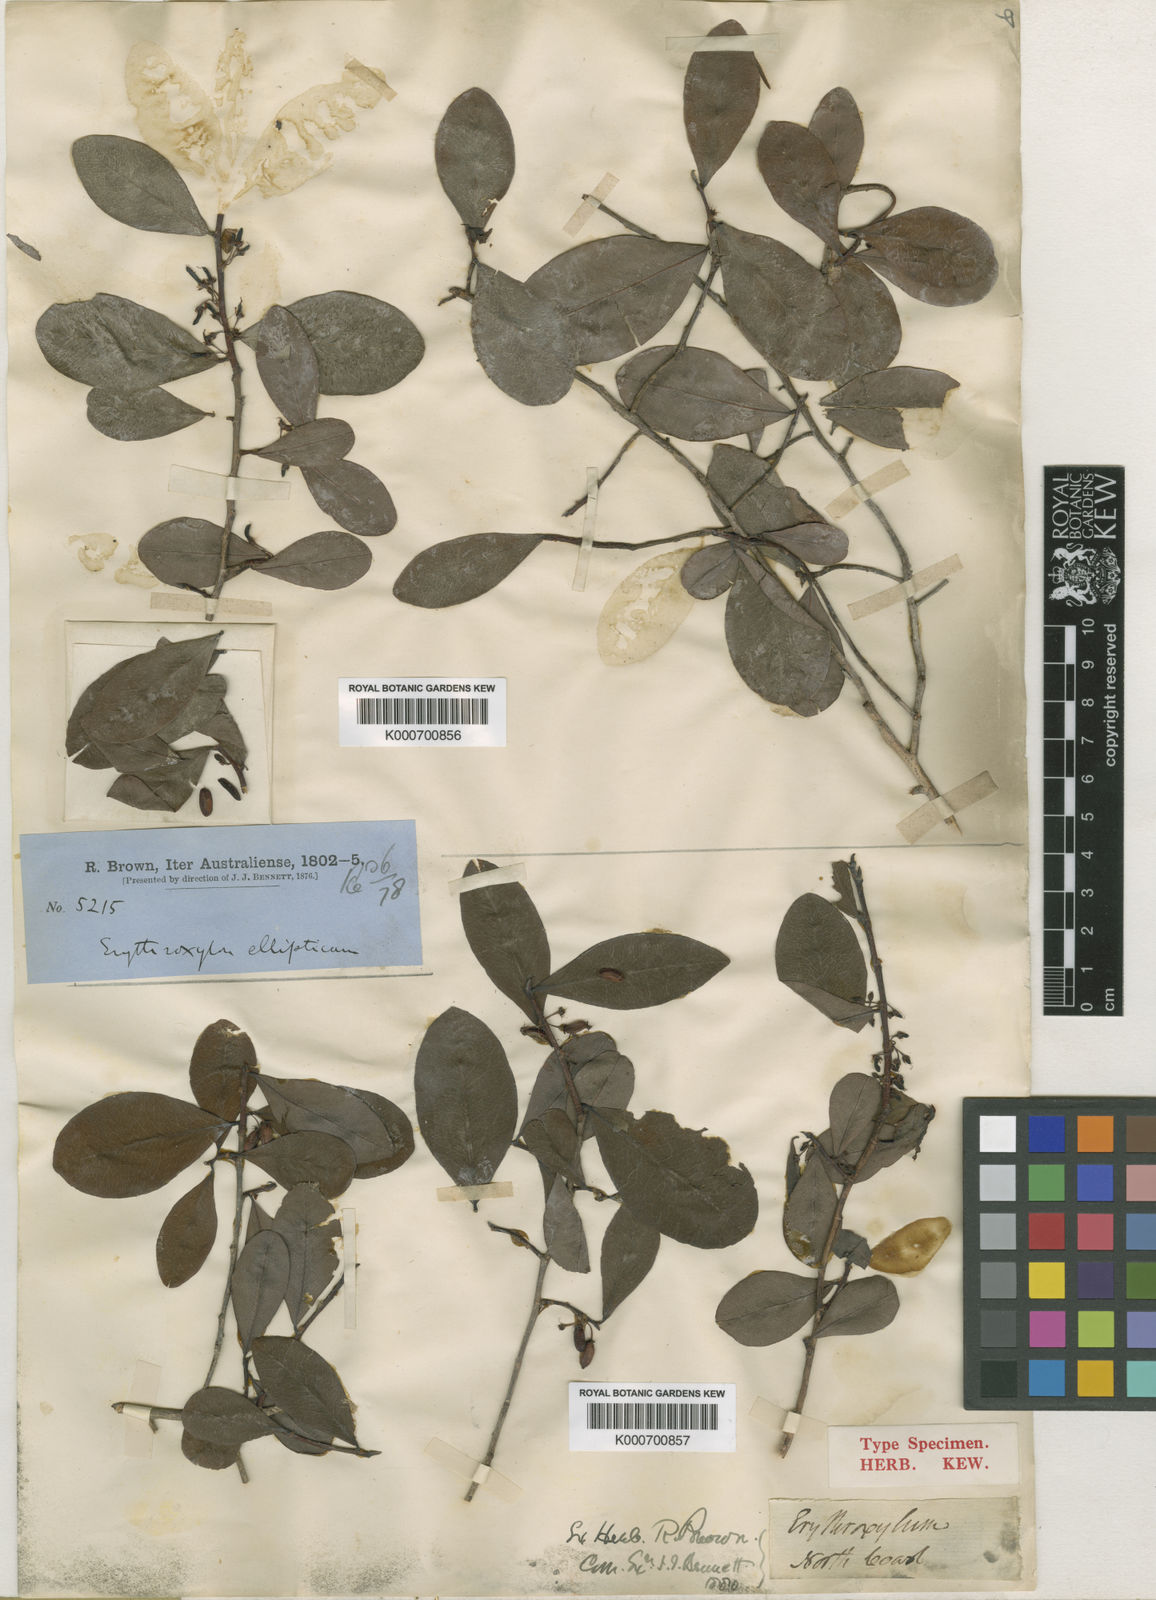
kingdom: Plantae
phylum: Tracheophyta
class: Magnoliopsida
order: Malpighiales
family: Erythroxylaceae
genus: Erythroxylum
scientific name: Erythroxylum ellipticum
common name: Brown plum
